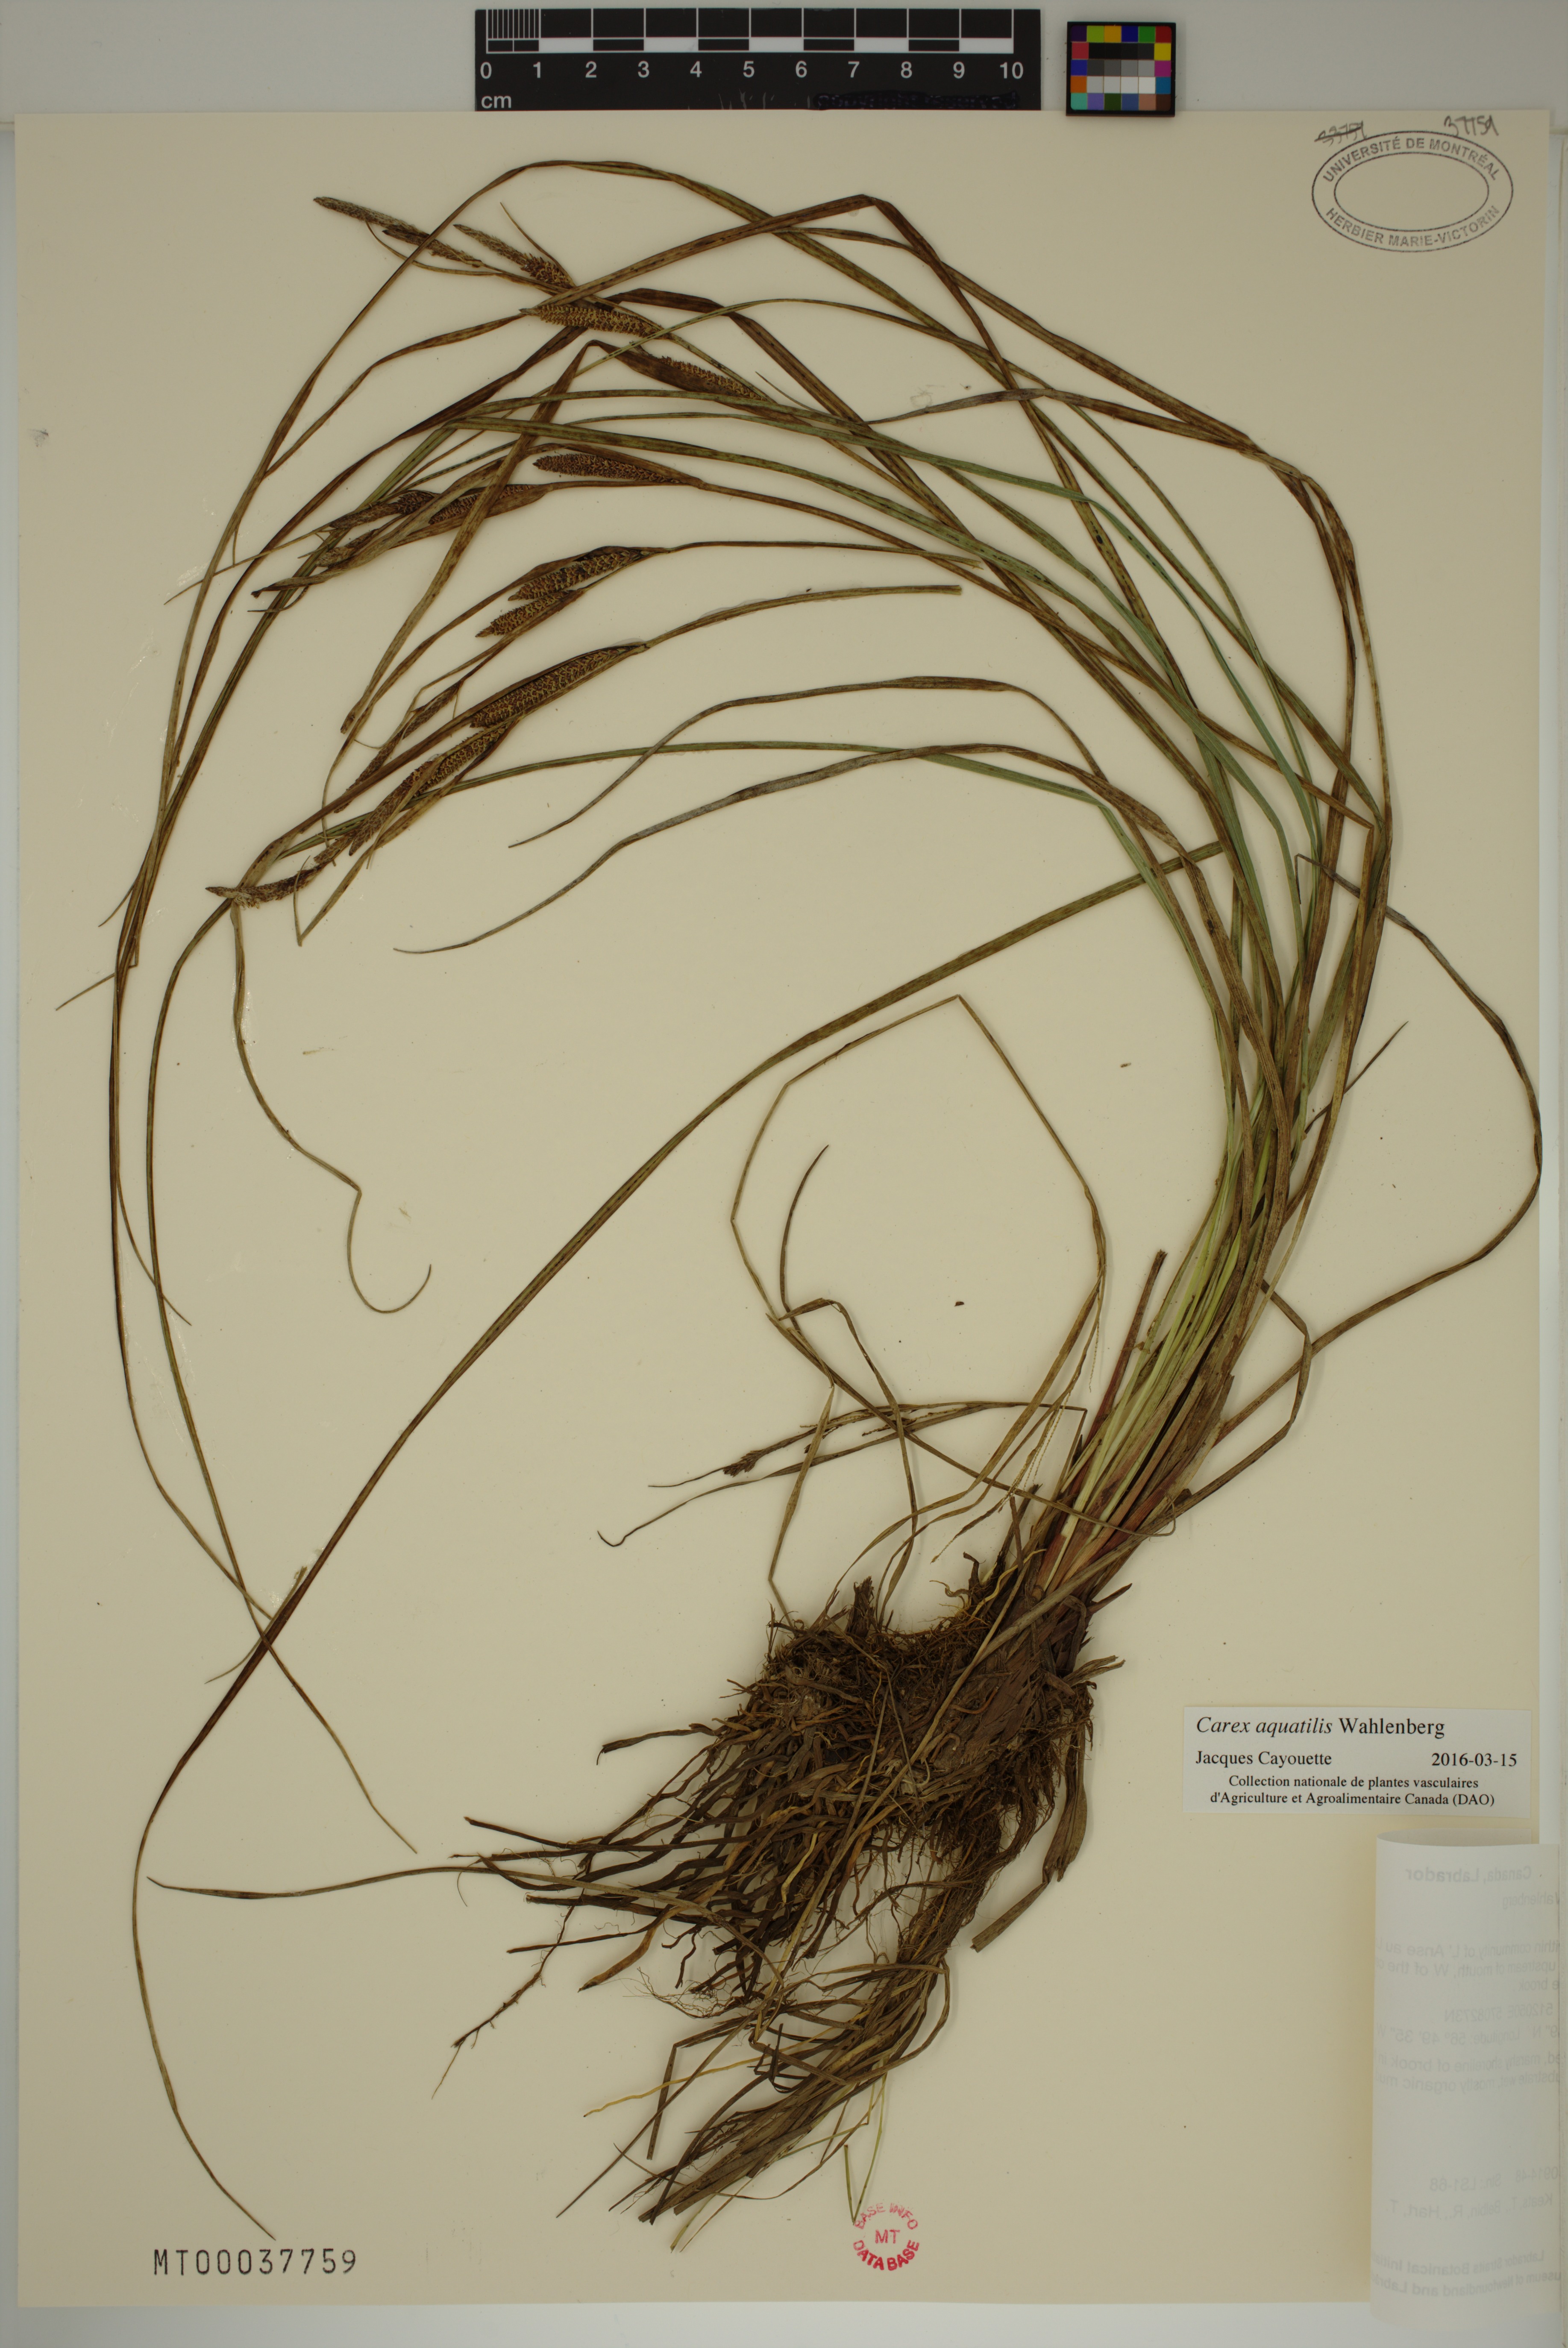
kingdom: Plantae
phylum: Tracheophyta
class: Liliopsida
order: Poales
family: Cyperaceae
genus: Carex
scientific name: Carex aquatilis
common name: Water sedge
